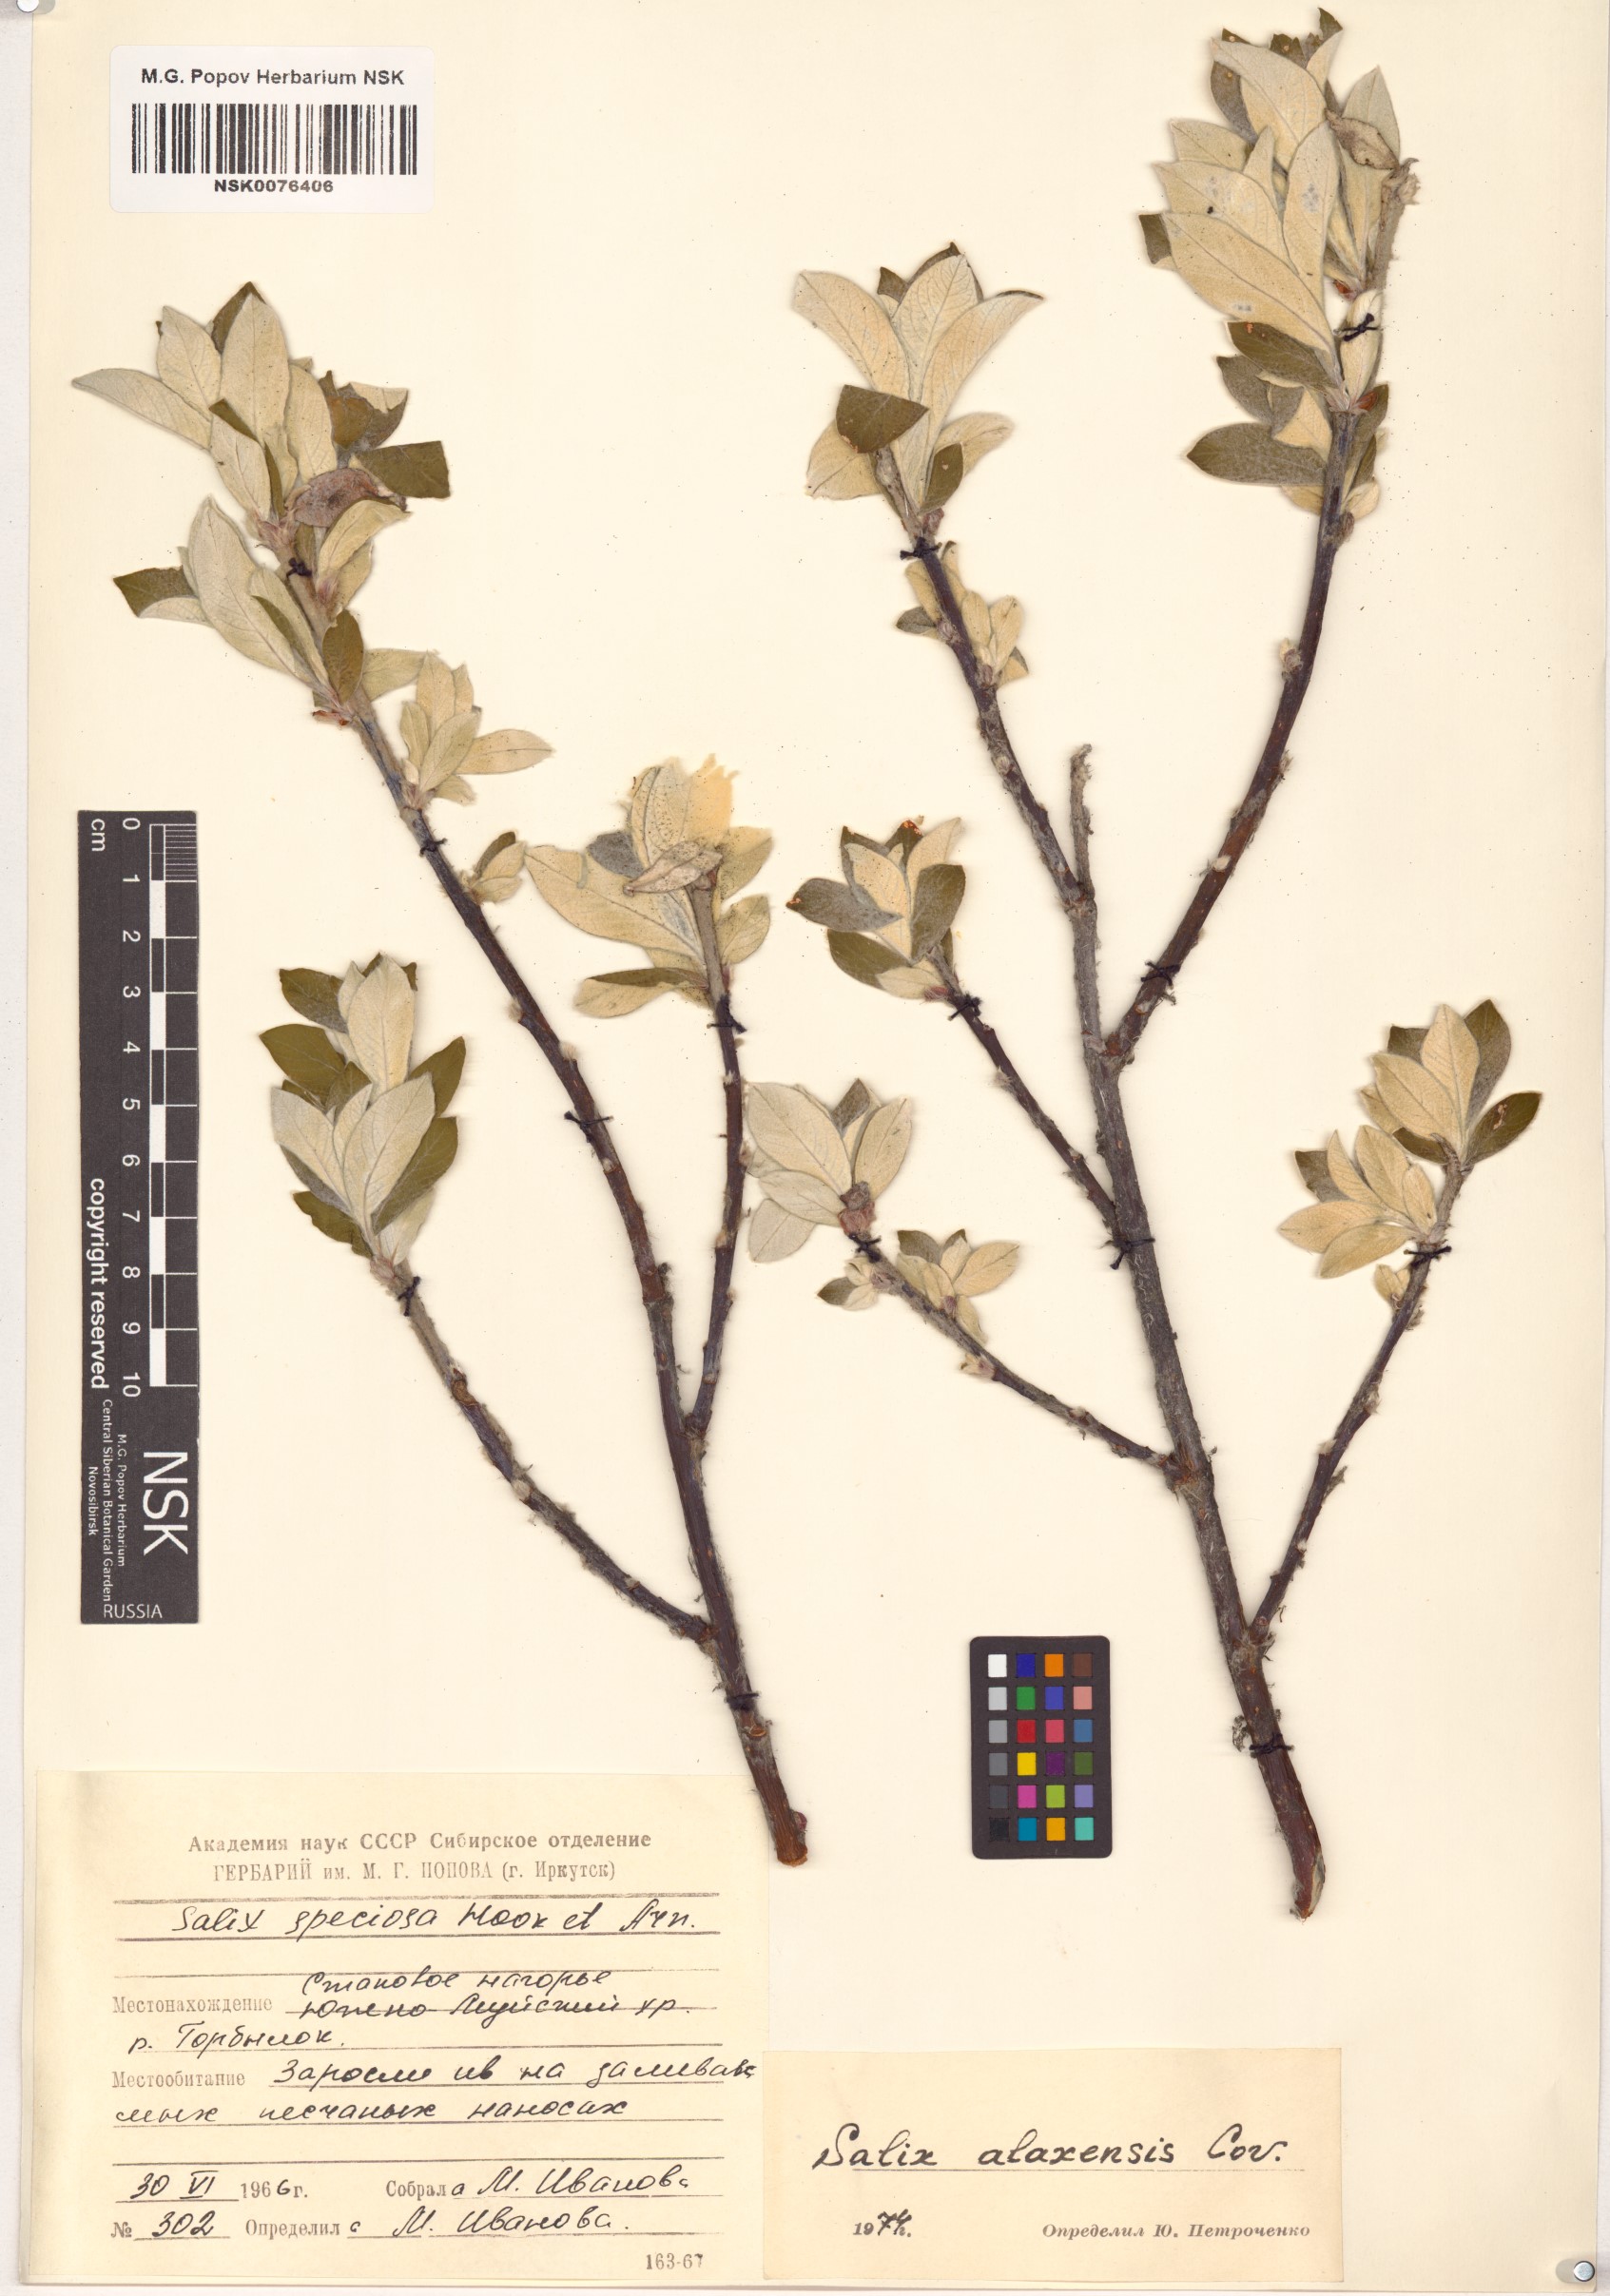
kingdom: Plantae
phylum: Tracheophyta
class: Magnoliopsida
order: Malpighiales
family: Salicaceae
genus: Salix
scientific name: Salix alaxensis
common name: Feltleaf willow
